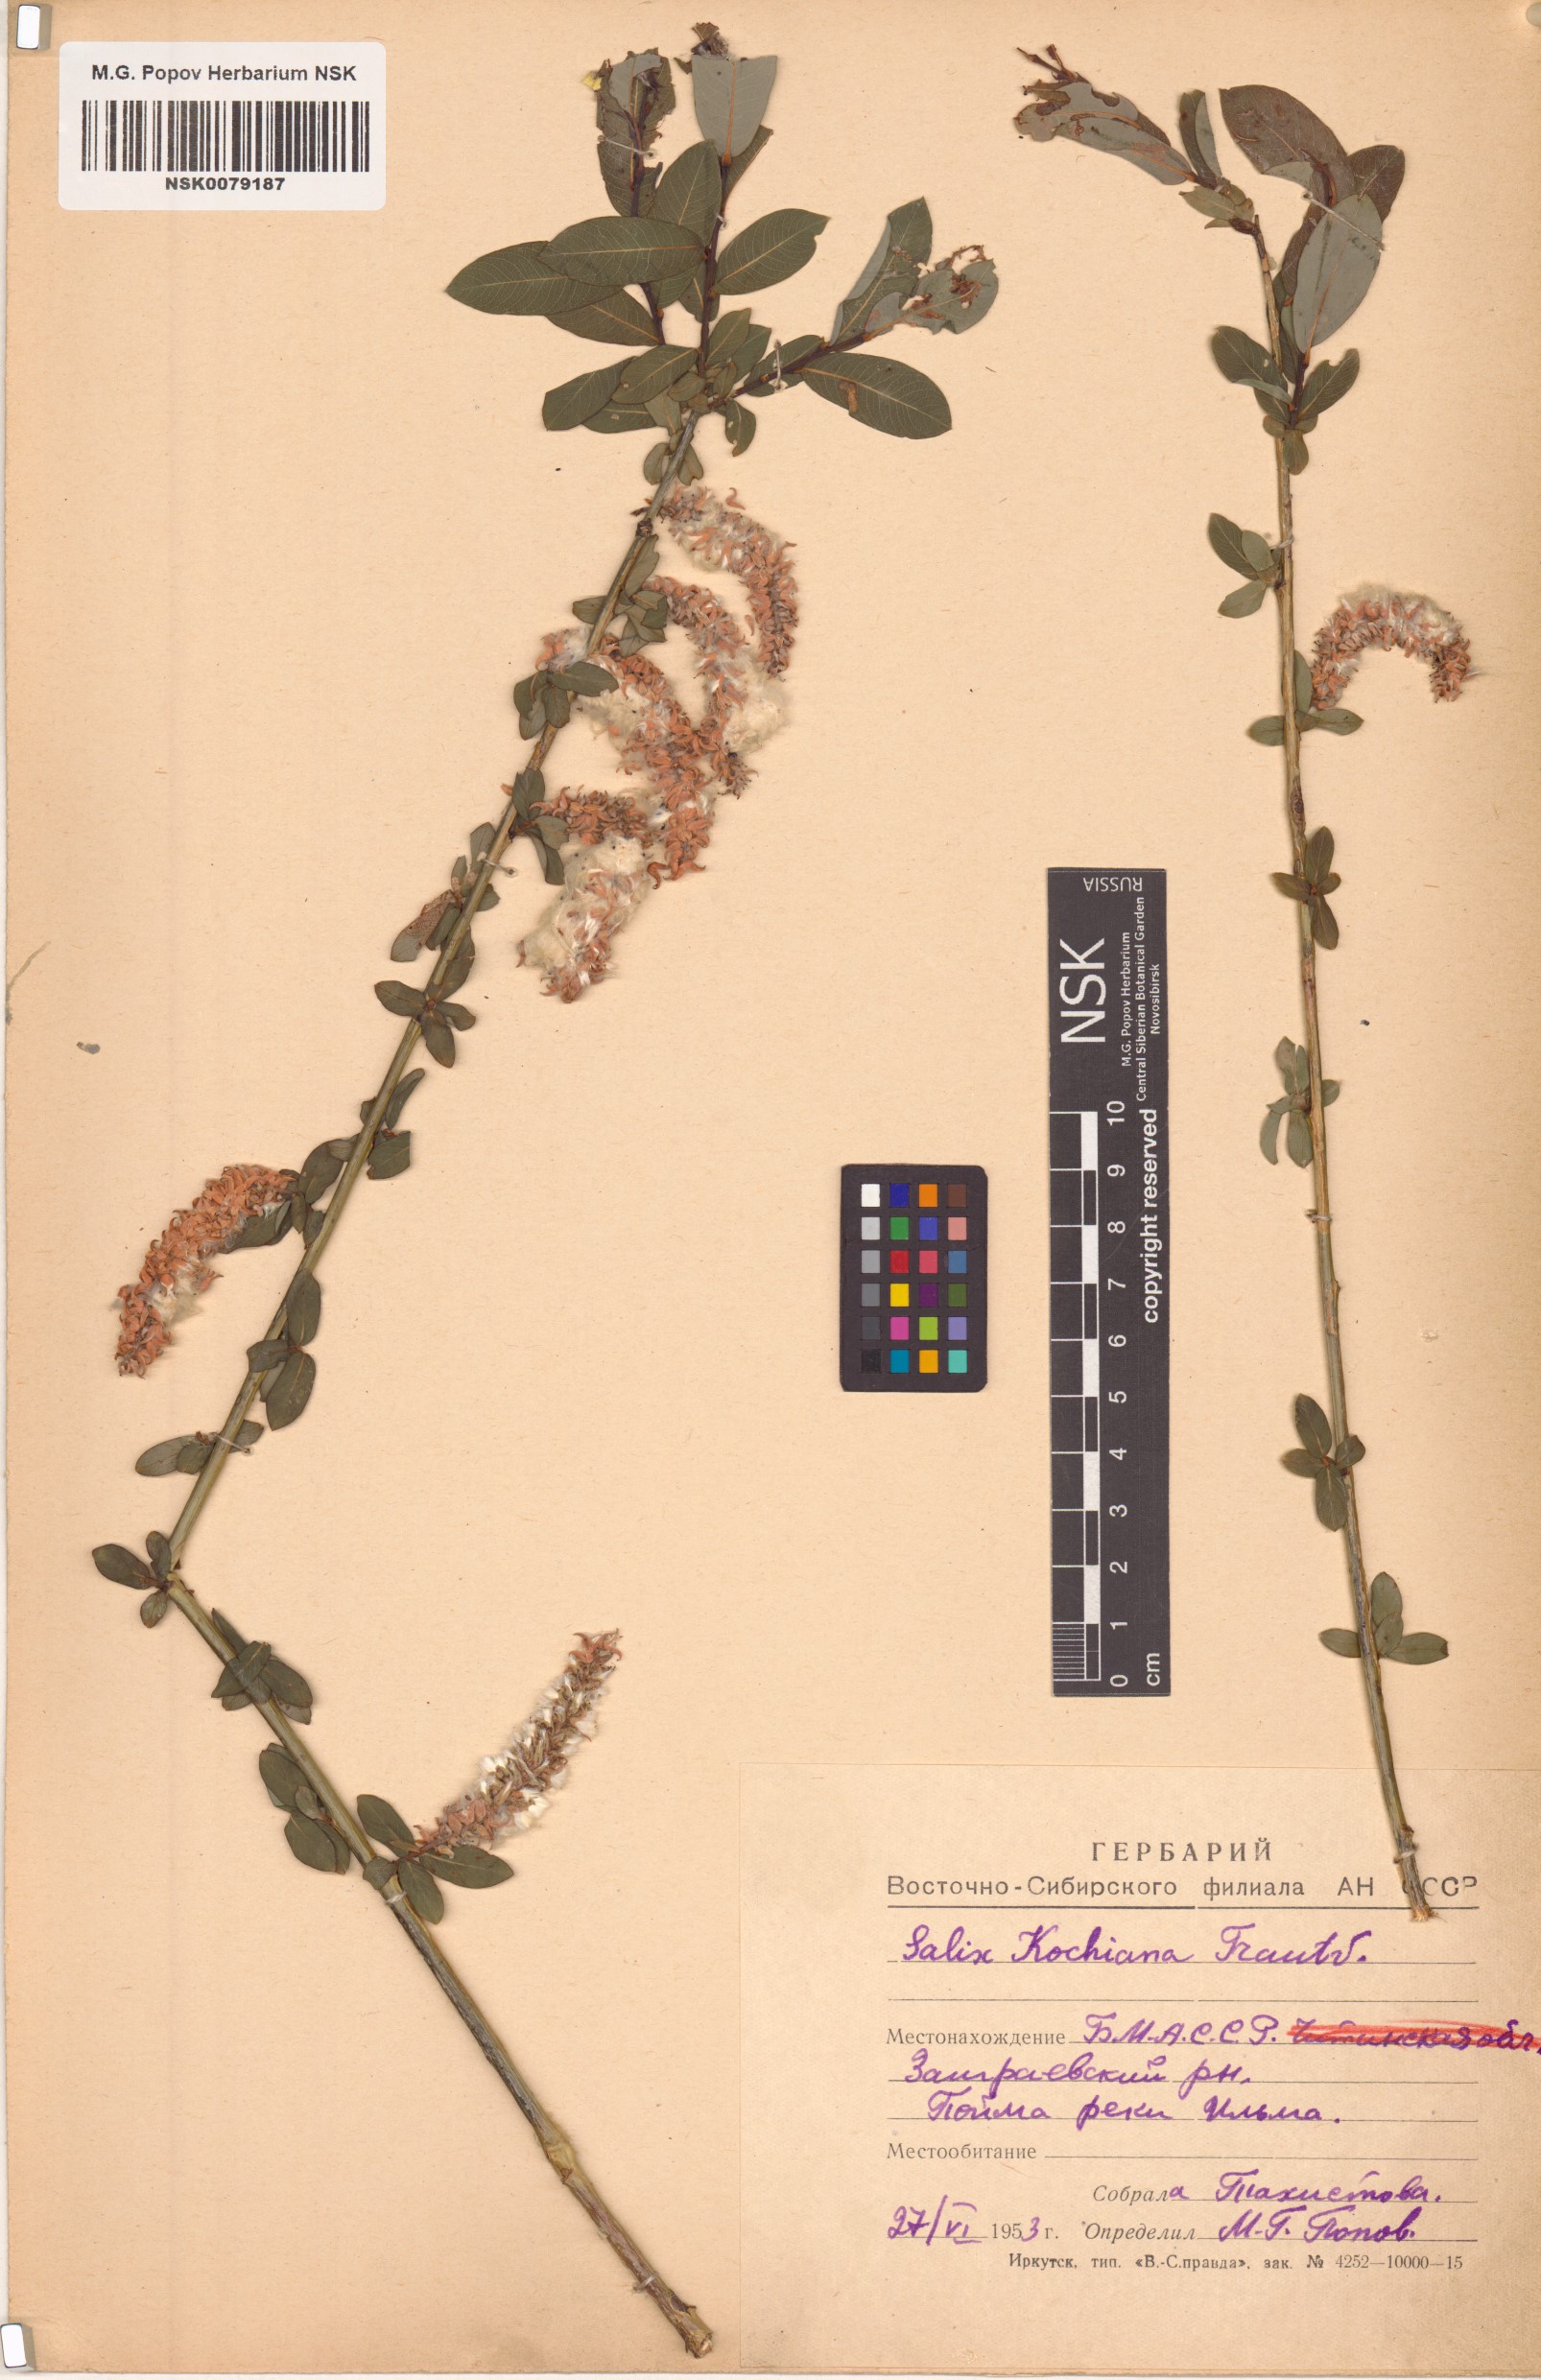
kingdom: Plantae
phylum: Tracheophyta
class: Magnoliopsida
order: Malpighiales
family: Salicaceae
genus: Salix
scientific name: Salix kochiana
